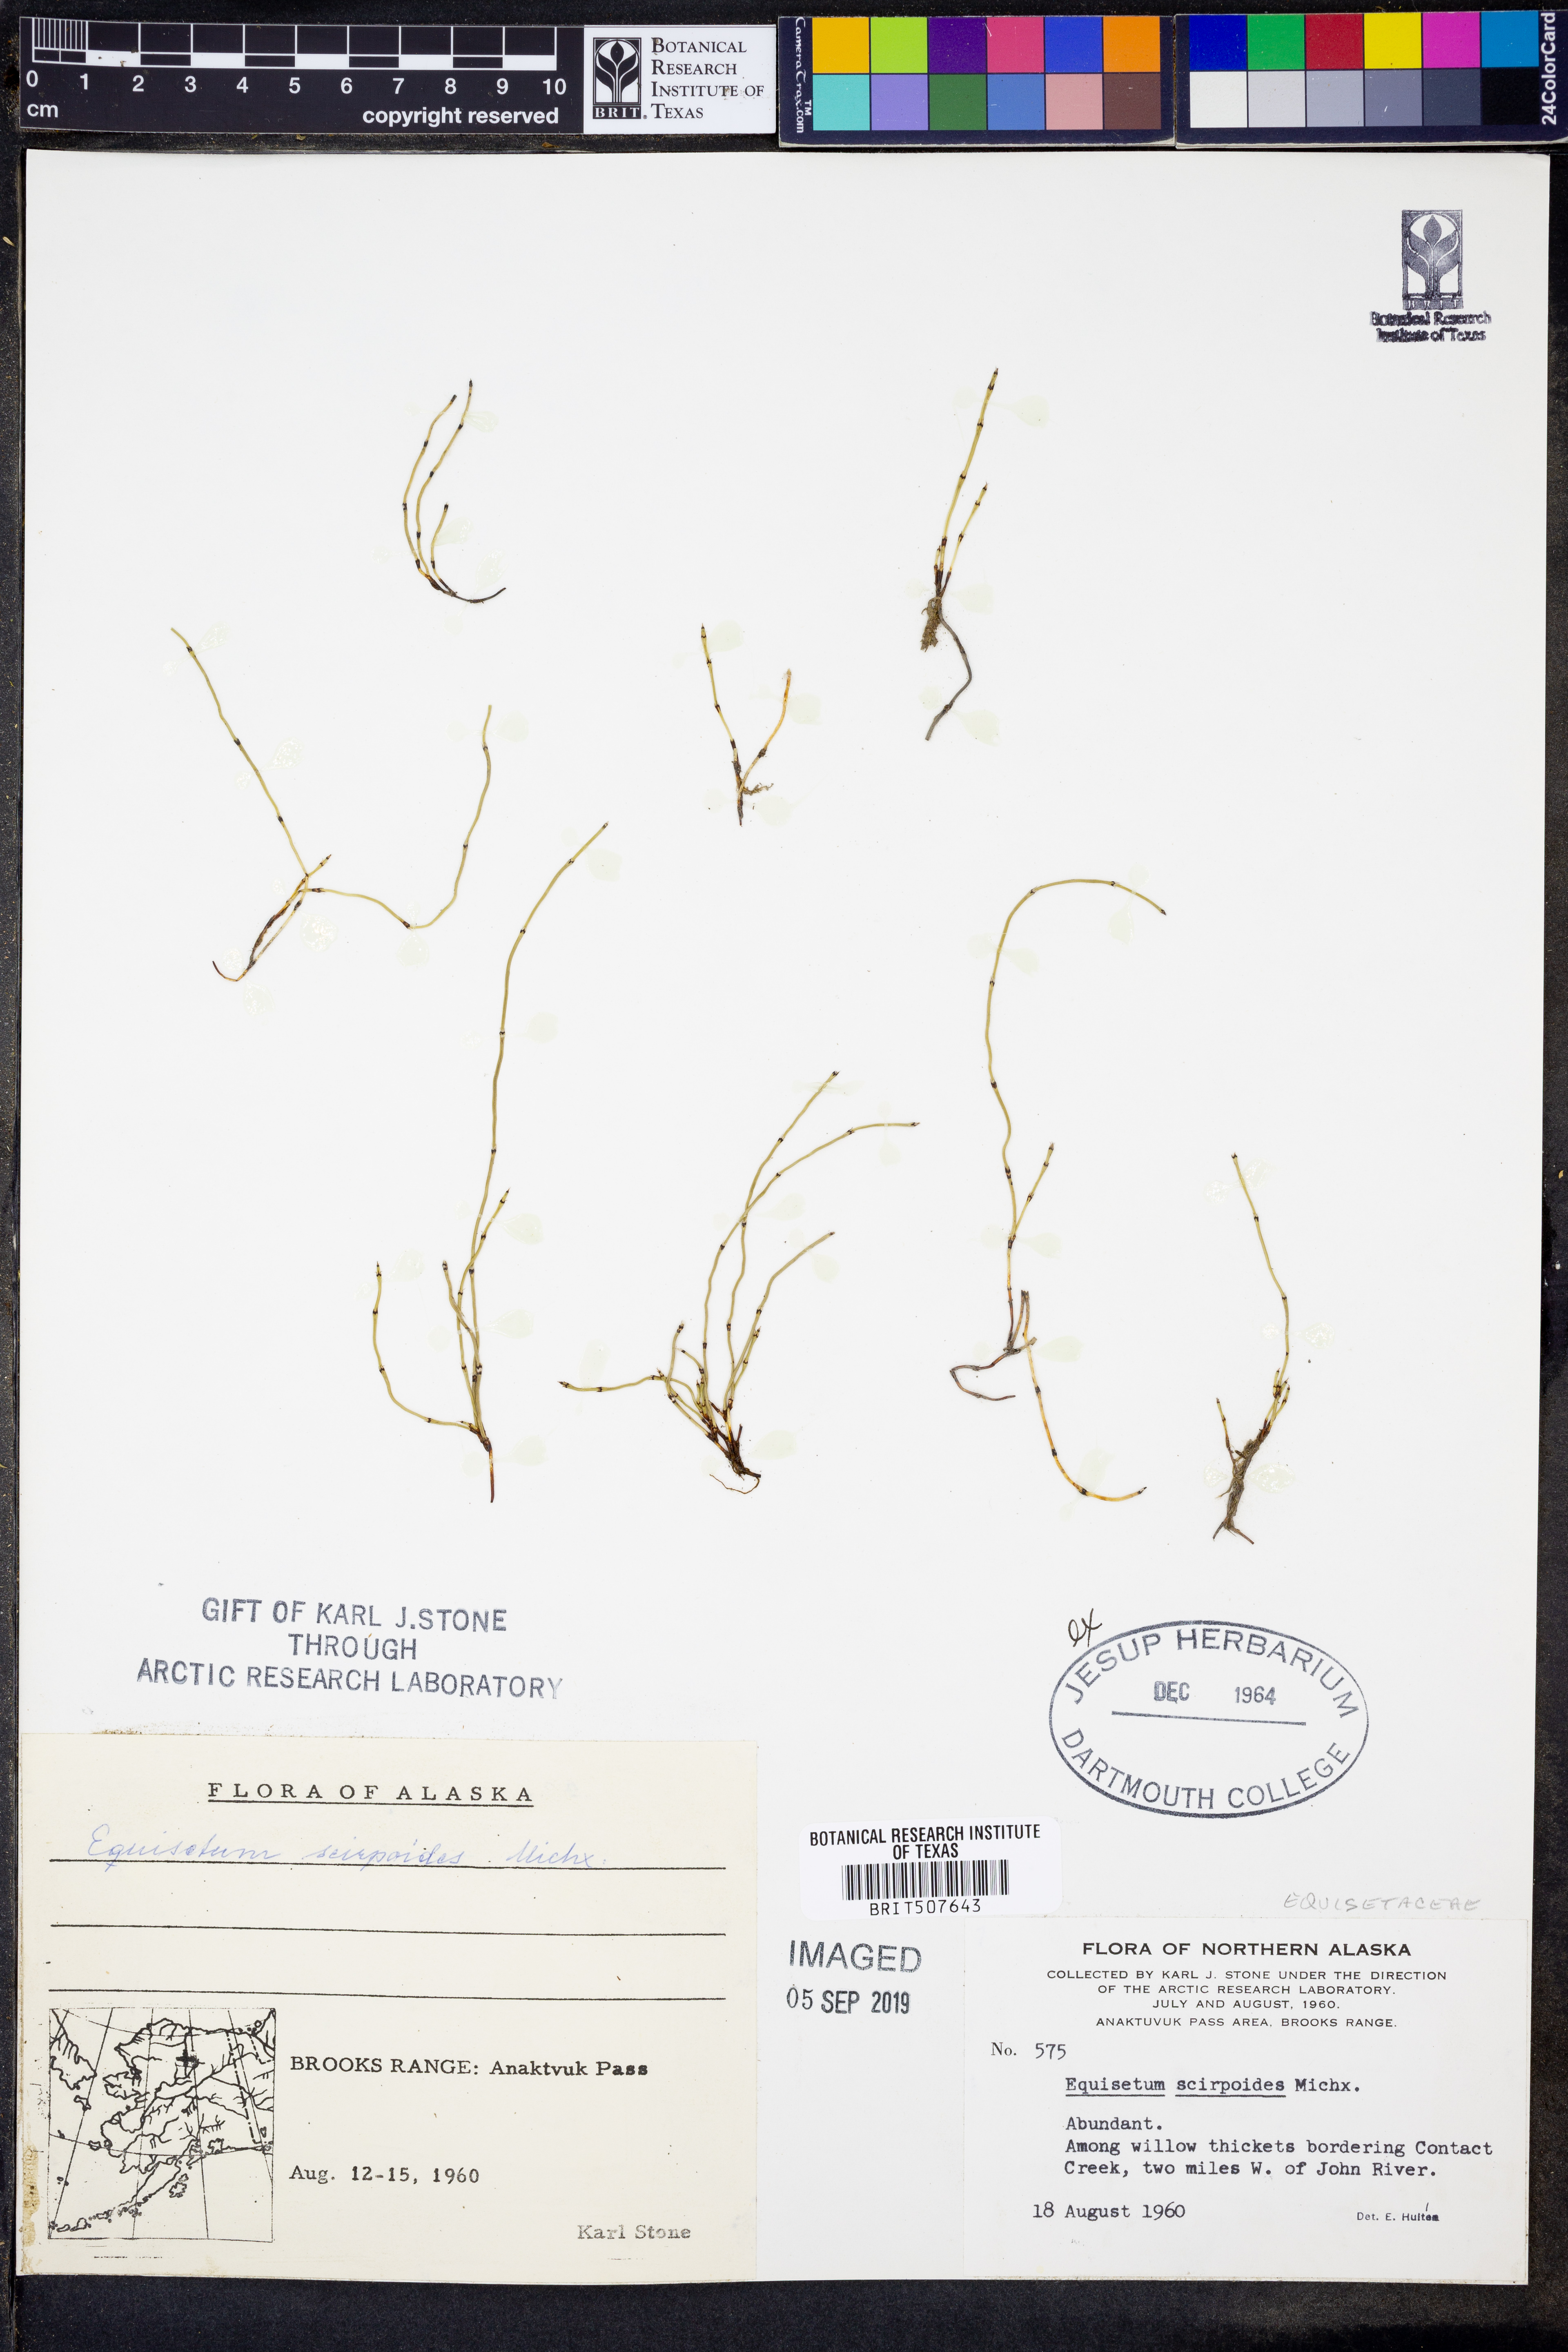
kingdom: Plantae
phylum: Tracheophyta
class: Polypodiopsida
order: Equisetales
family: Equisetaceae
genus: Equisetum
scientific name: Equisetum scirpoides
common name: Delicate horsetail
